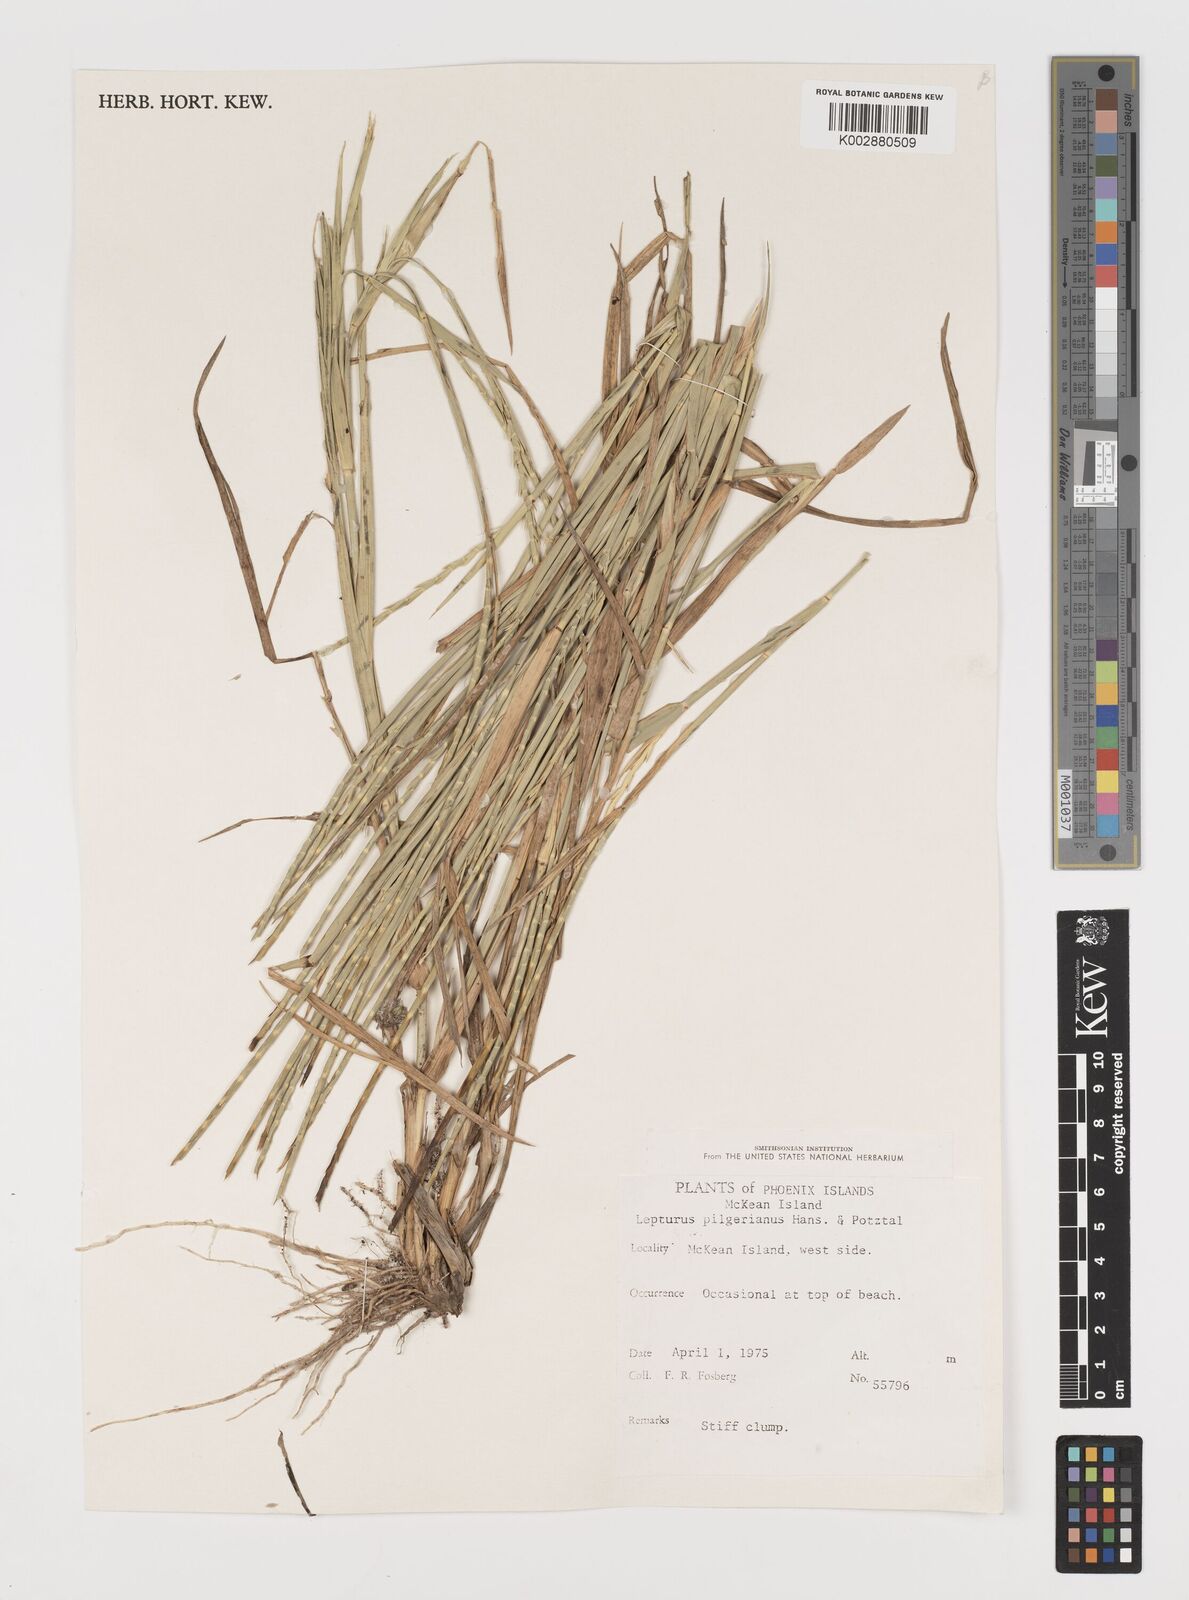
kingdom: Plantae
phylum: Tracheophyta
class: Liliopsida
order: Poales
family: Poaceae
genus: Lepturus
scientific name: Lepturus repens
